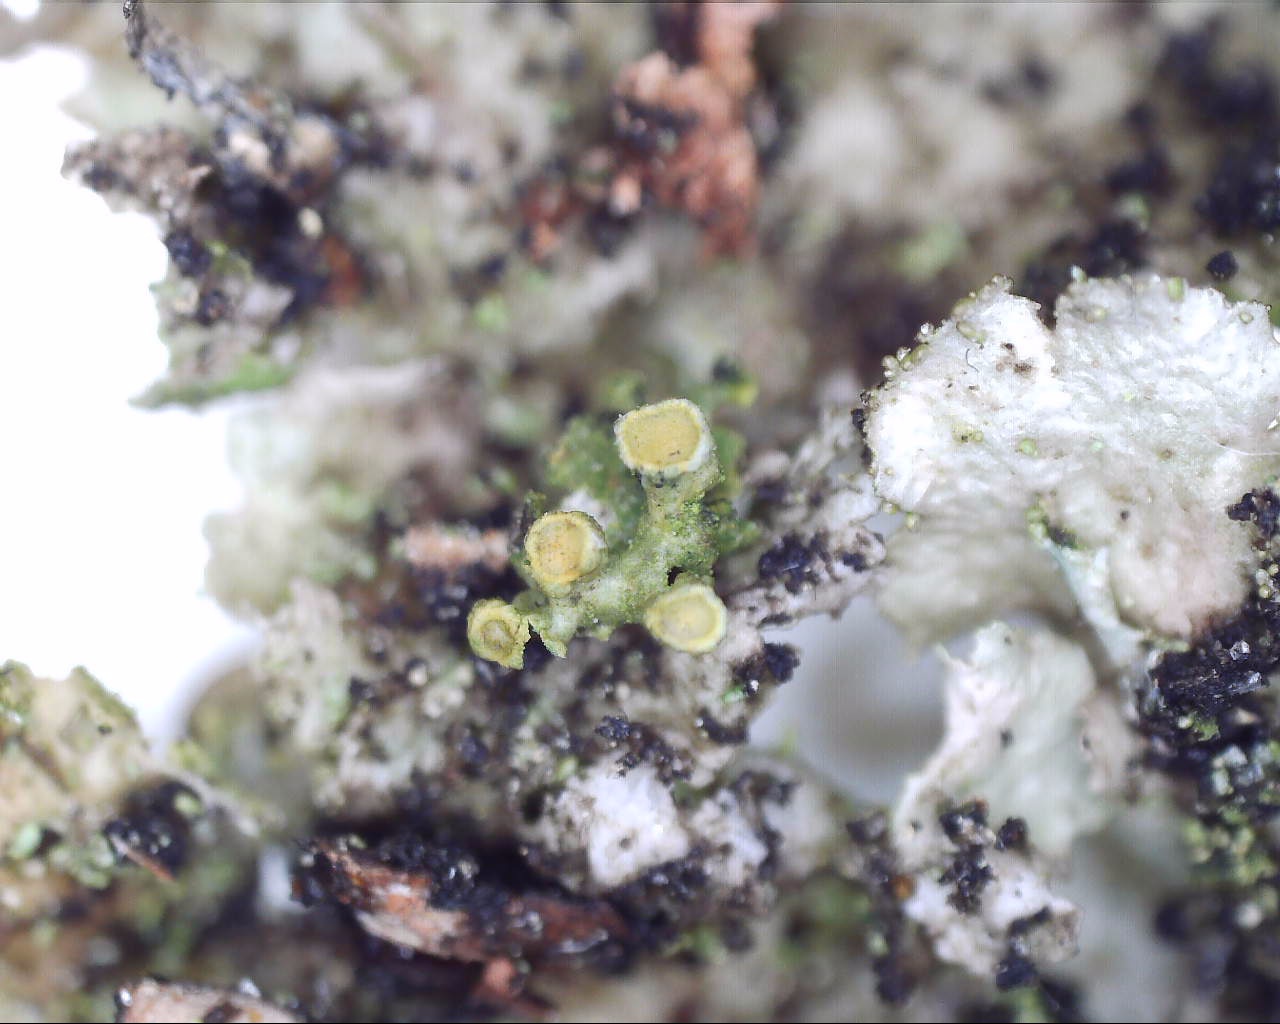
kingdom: Fungi
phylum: Ascomycota
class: Lecanoromycetes
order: Teloschistales
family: Teloschistaceae
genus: Polycauliona
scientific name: Polycauliona polycarpa
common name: mangefrugtet orangelav
